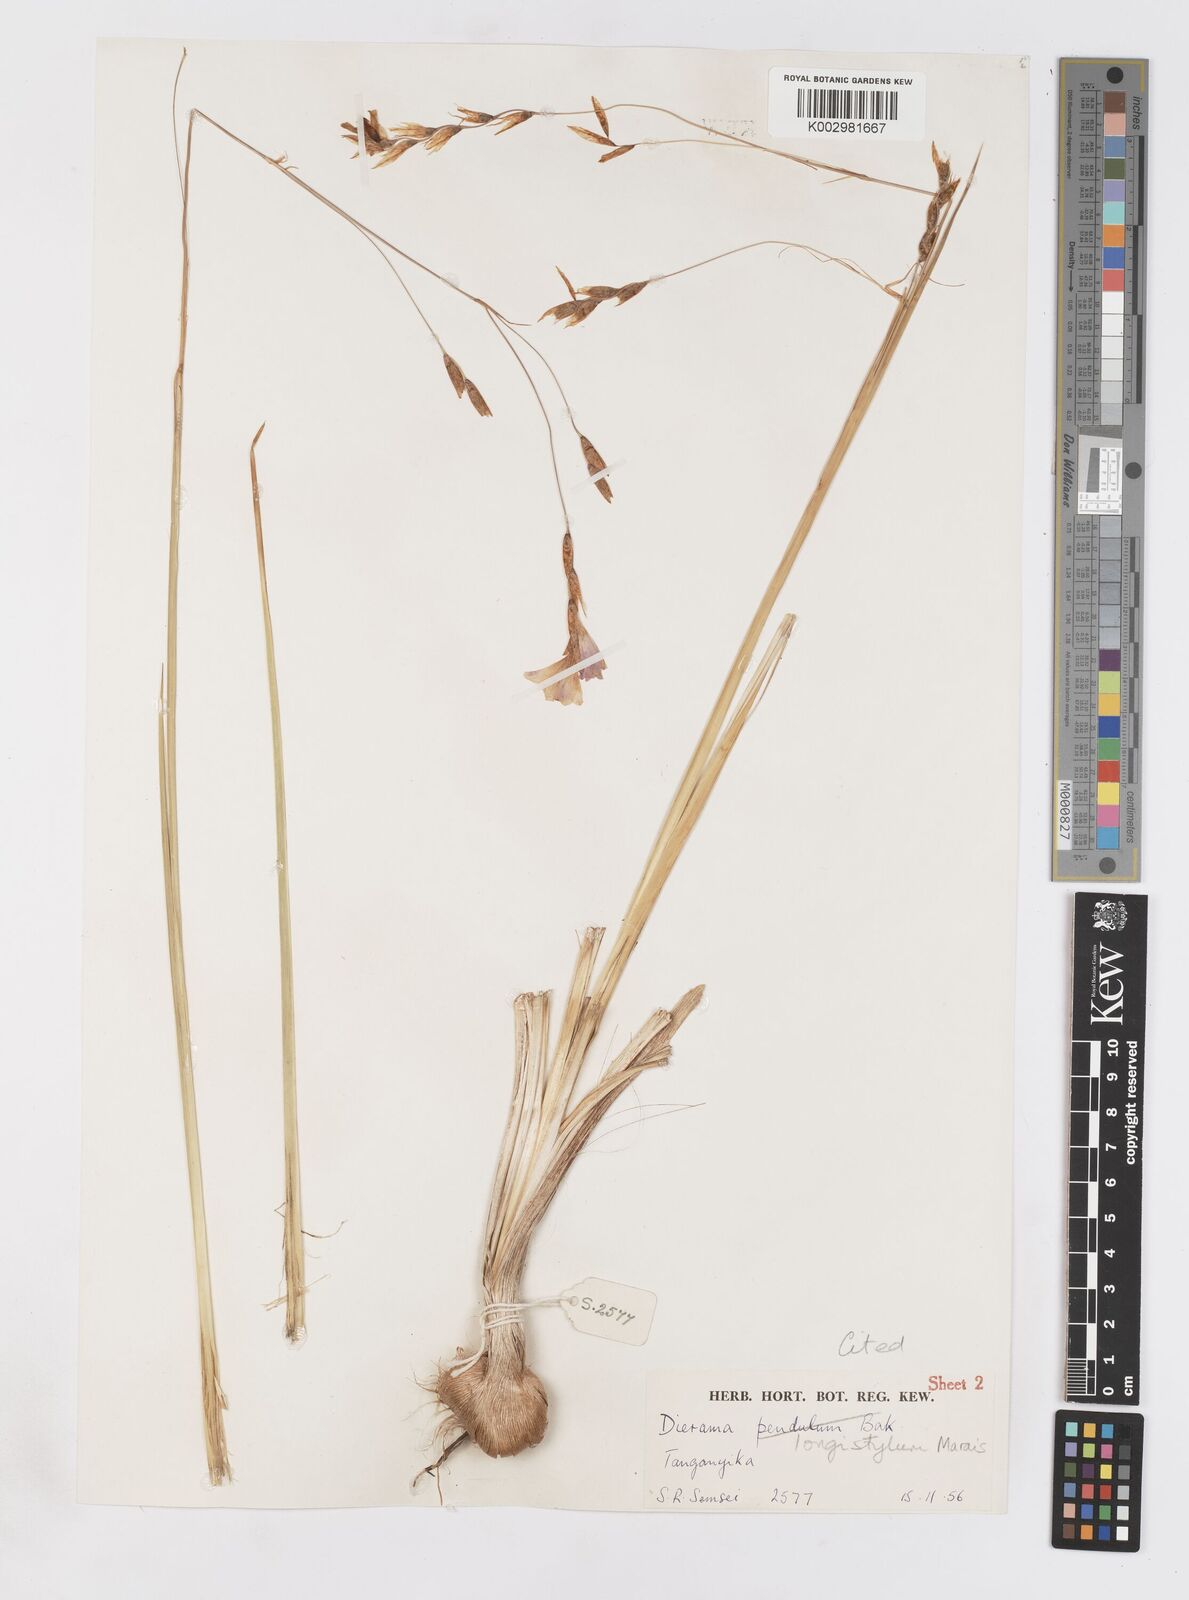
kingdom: Plantae
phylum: Tracheophyta
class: Liliopsida
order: Asparagales
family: Iridaceae
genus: Dierama
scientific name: Dierama longistylum
